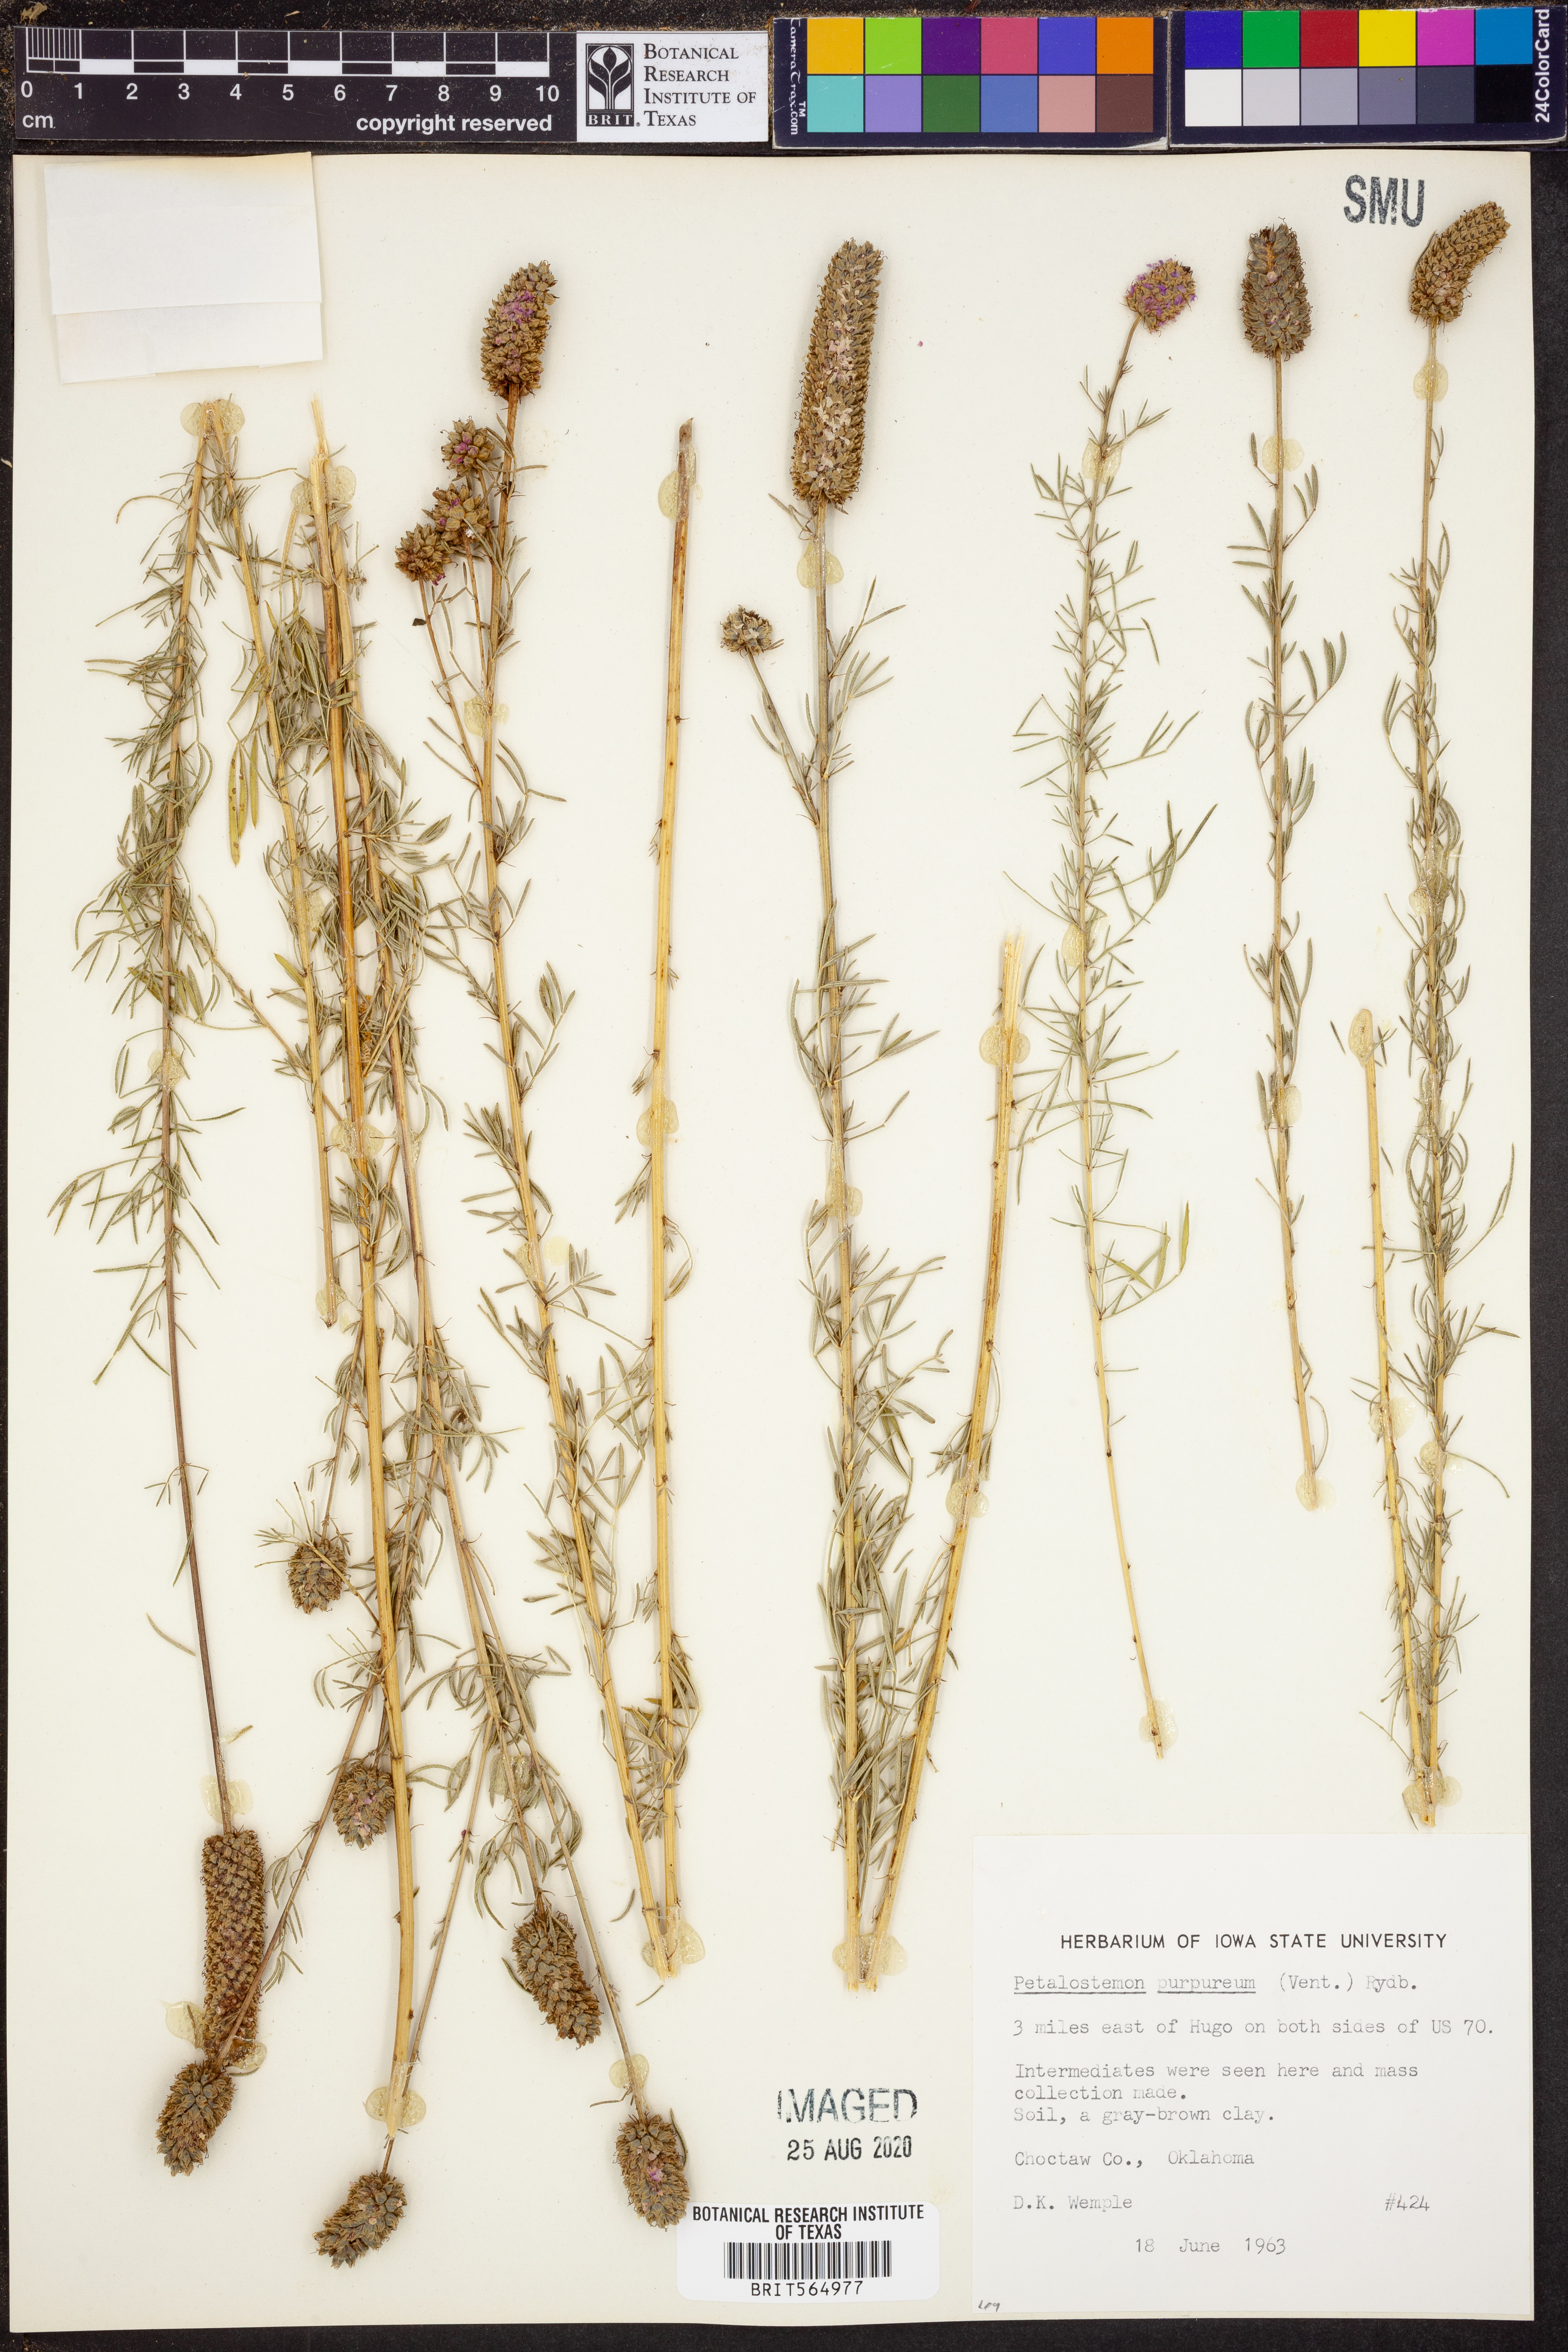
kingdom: Plantae
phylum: Tracheophyta
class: Magnoliopsida
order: Fabales
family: Fabaceae
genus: Dalea
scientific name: Dalea purpurea
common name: Purple prairie-clover
